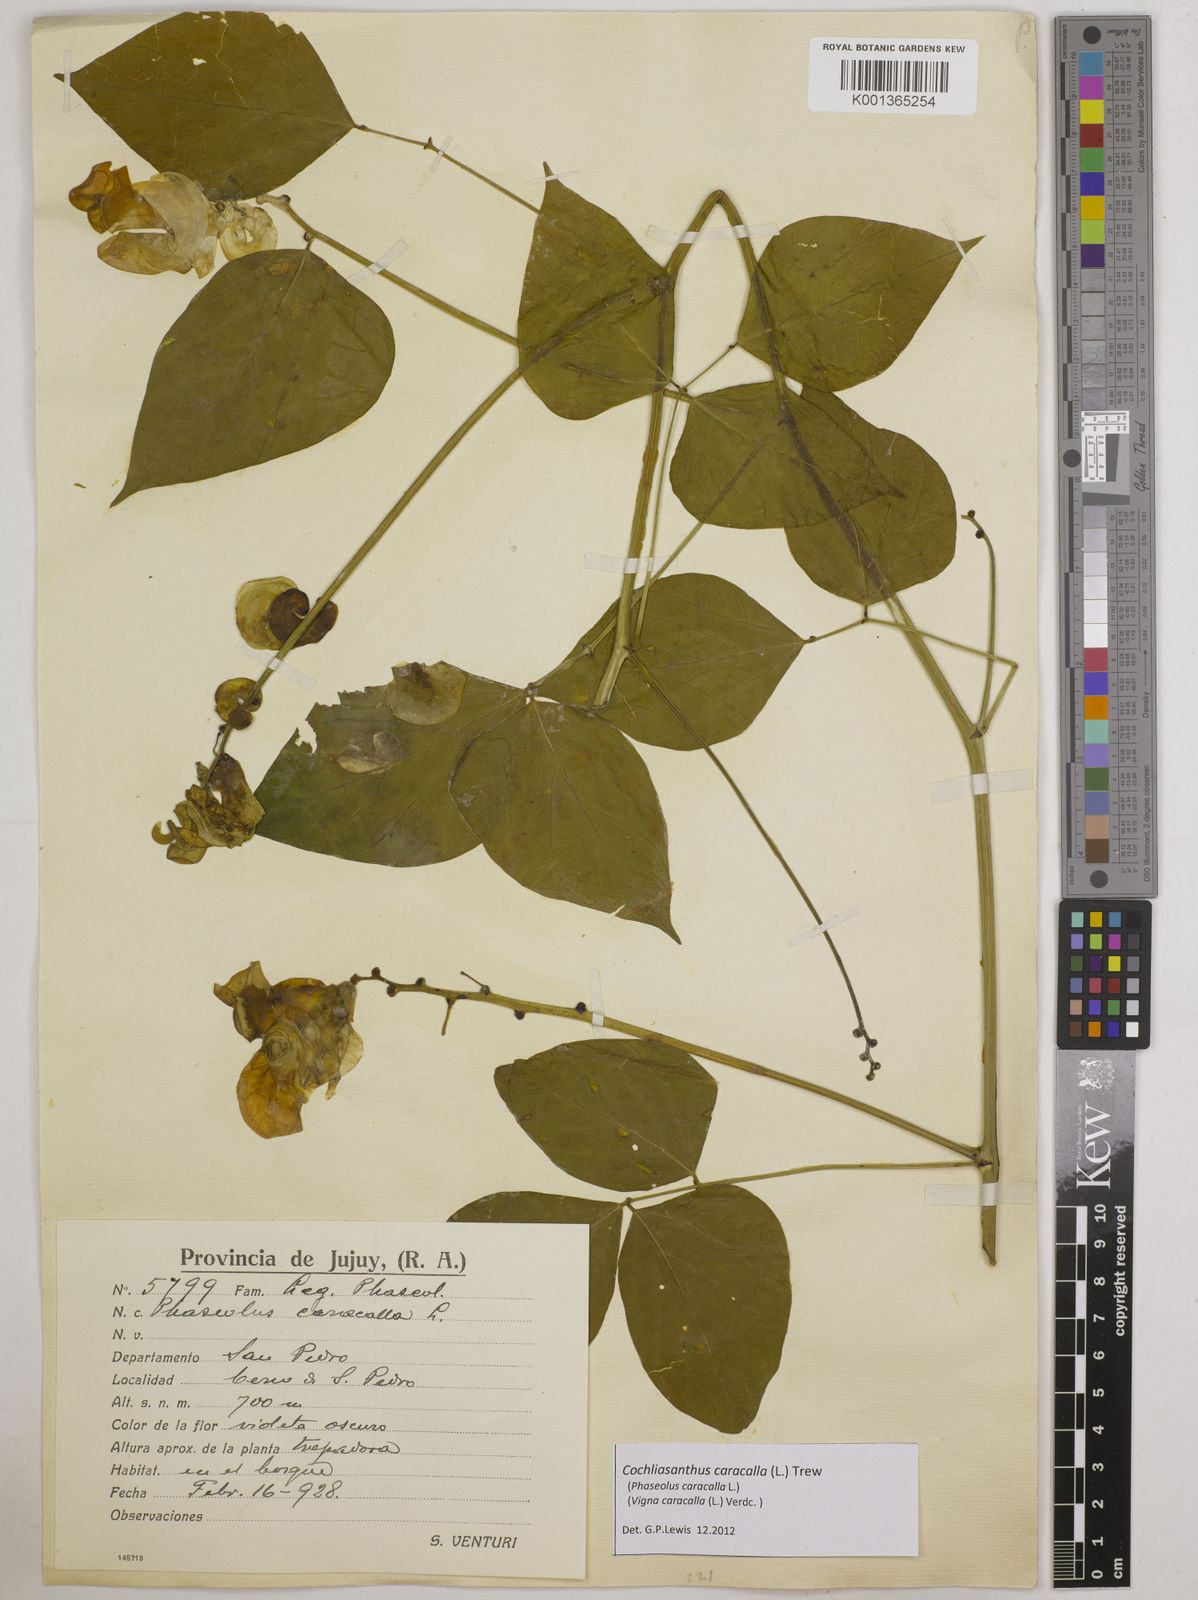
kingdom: Plantae
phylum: Tracheophyta
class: Magnoliopsida
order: Fabales
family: Fabaceae
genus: Cochliasanthus
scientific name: Cochliasanthus caracalla
